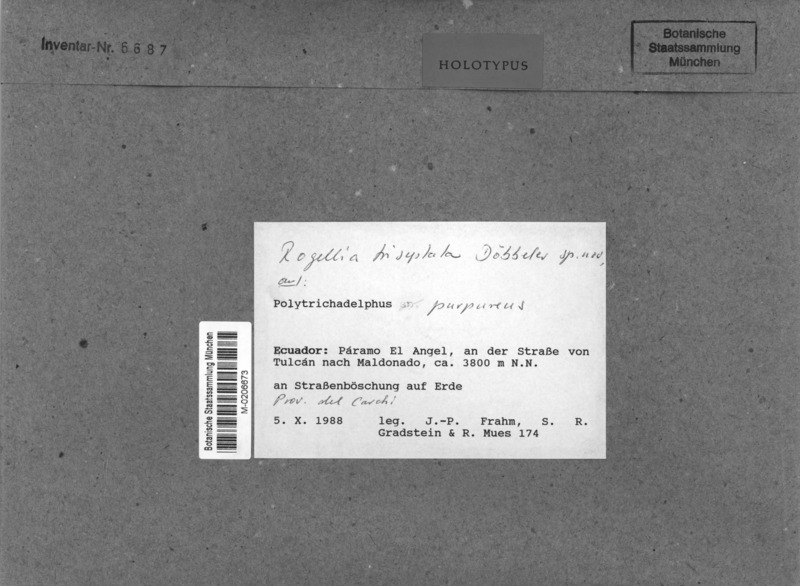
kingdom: Fungi
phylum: Ascomycota
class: Lecanoromycetes
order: Ostropales
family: Odontotremataceae
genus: Rogellia
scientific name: Rogellia triseptata
